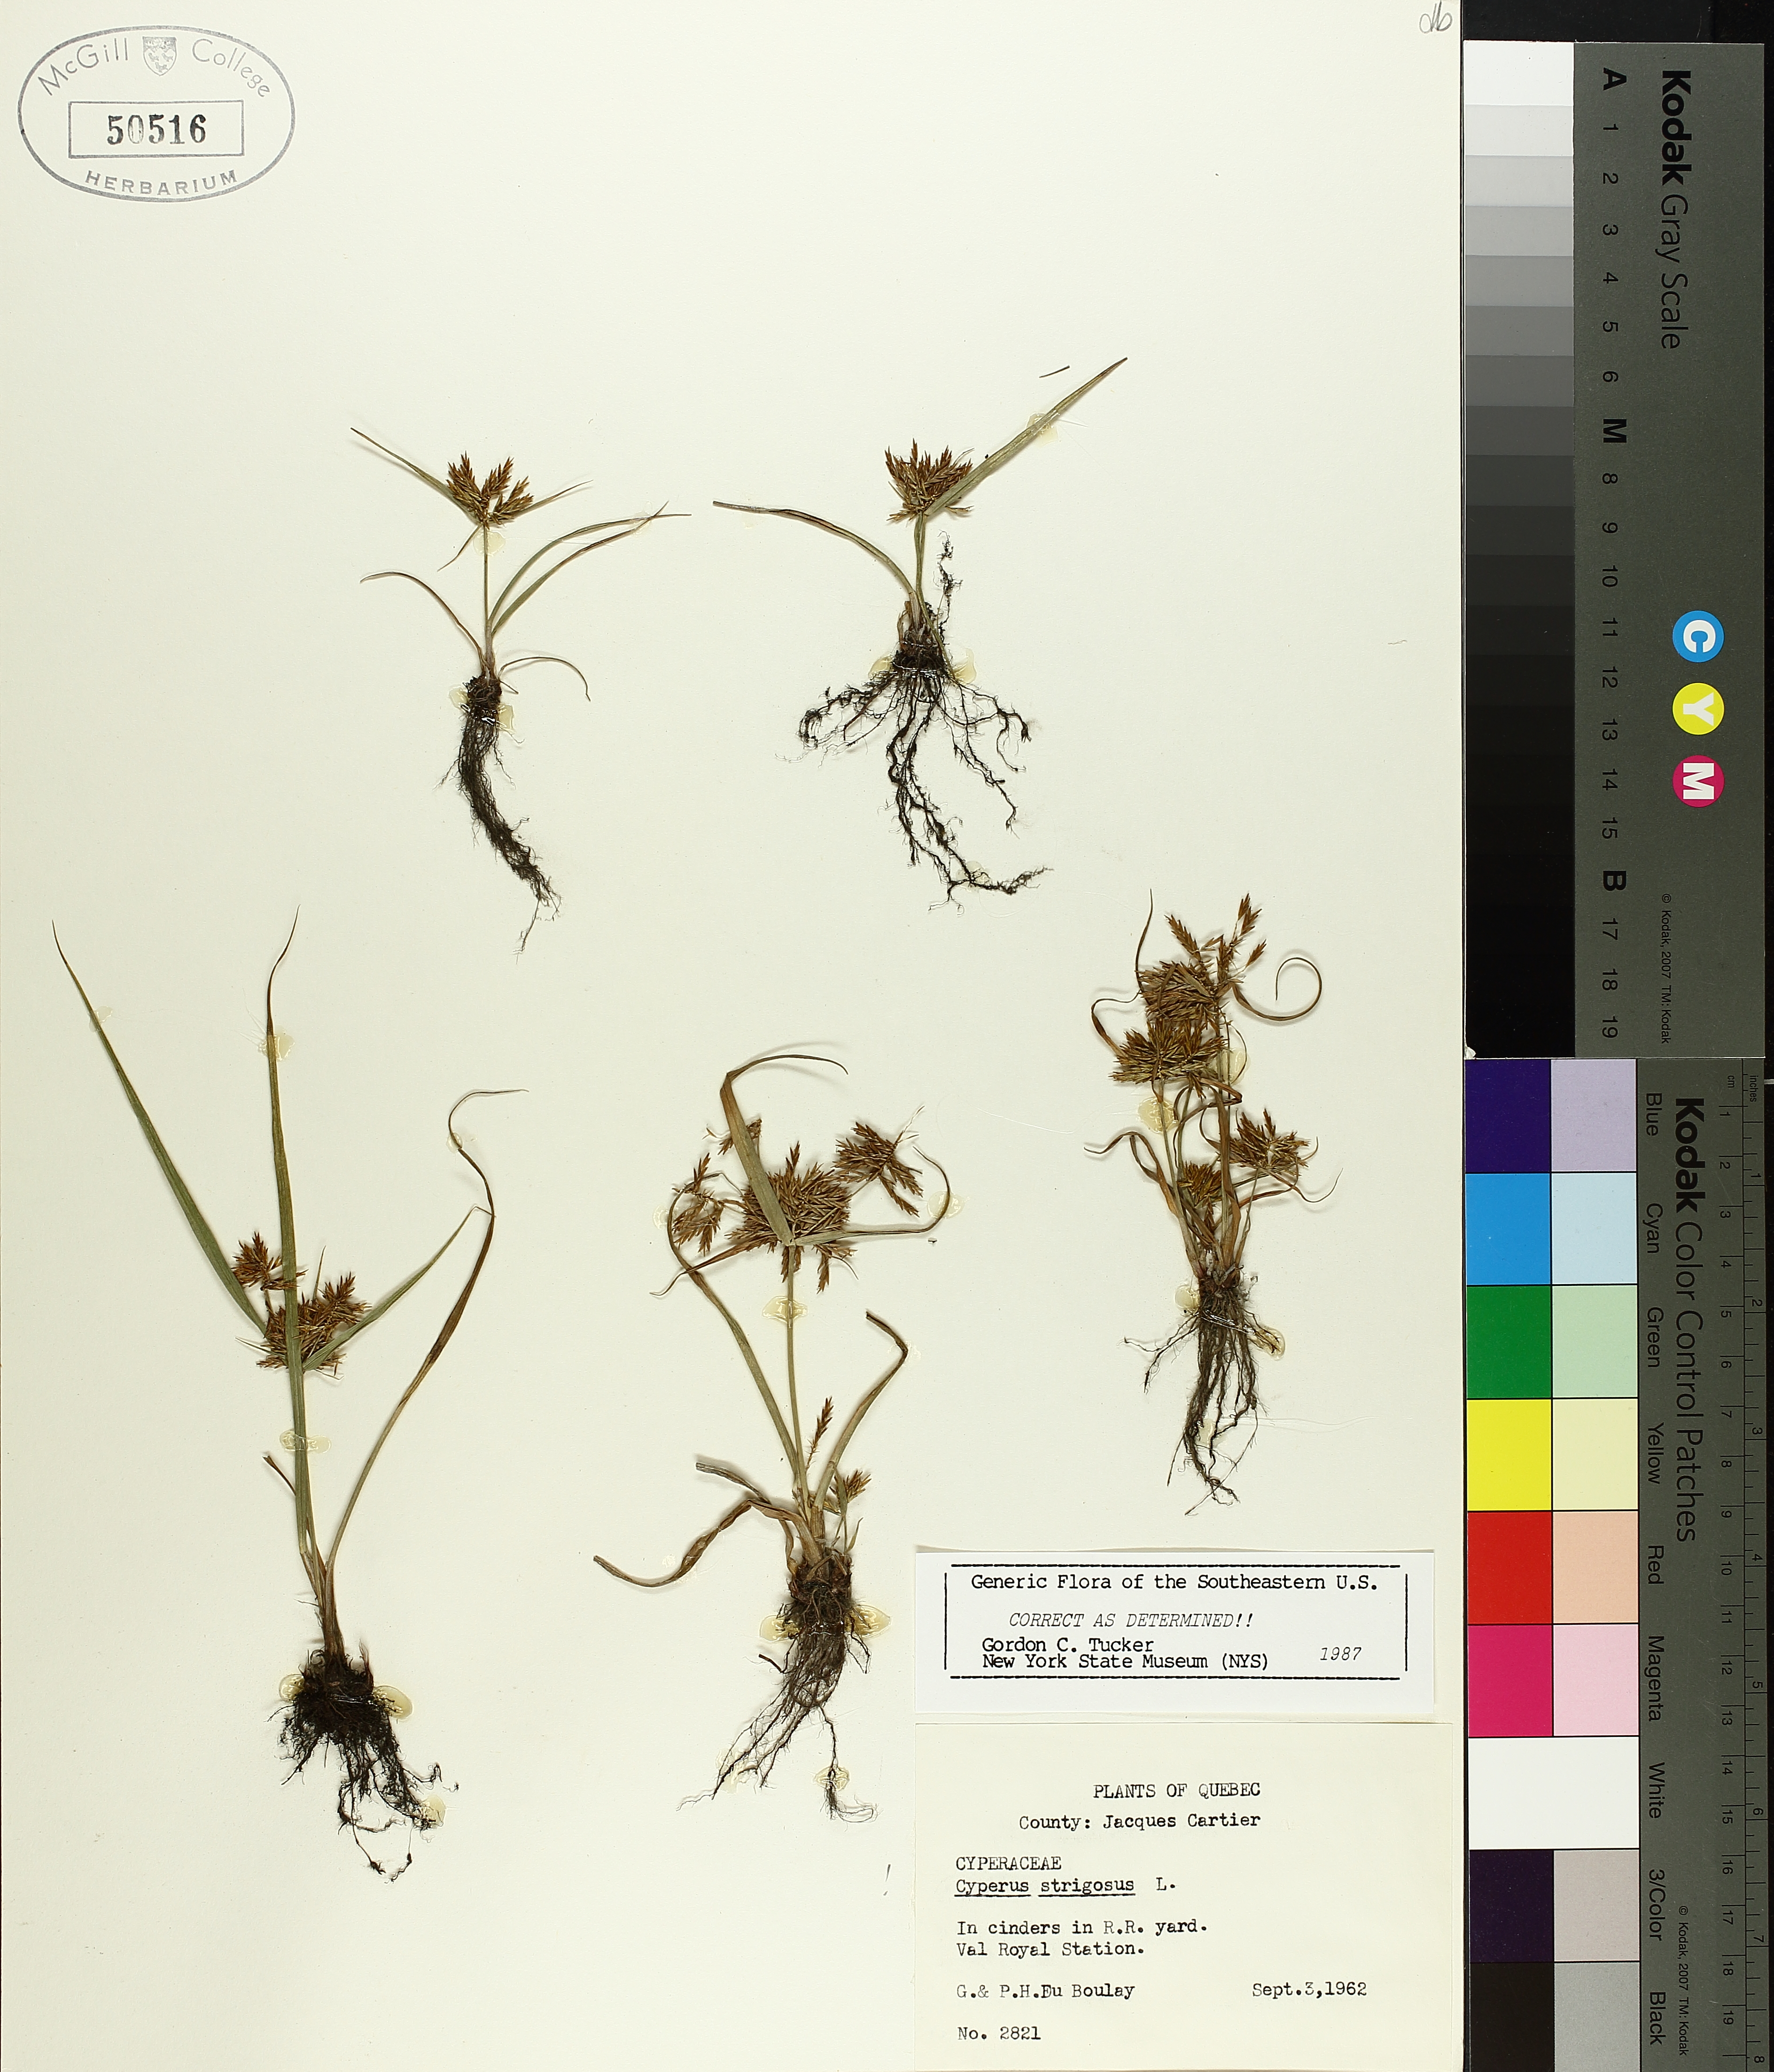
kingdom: Plantae
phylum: Tracheophyta
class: Liliopsida
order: Poales
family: Cyperaceae
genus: Cyperus
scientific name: Cyperus strigosus
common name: False nutsedge
